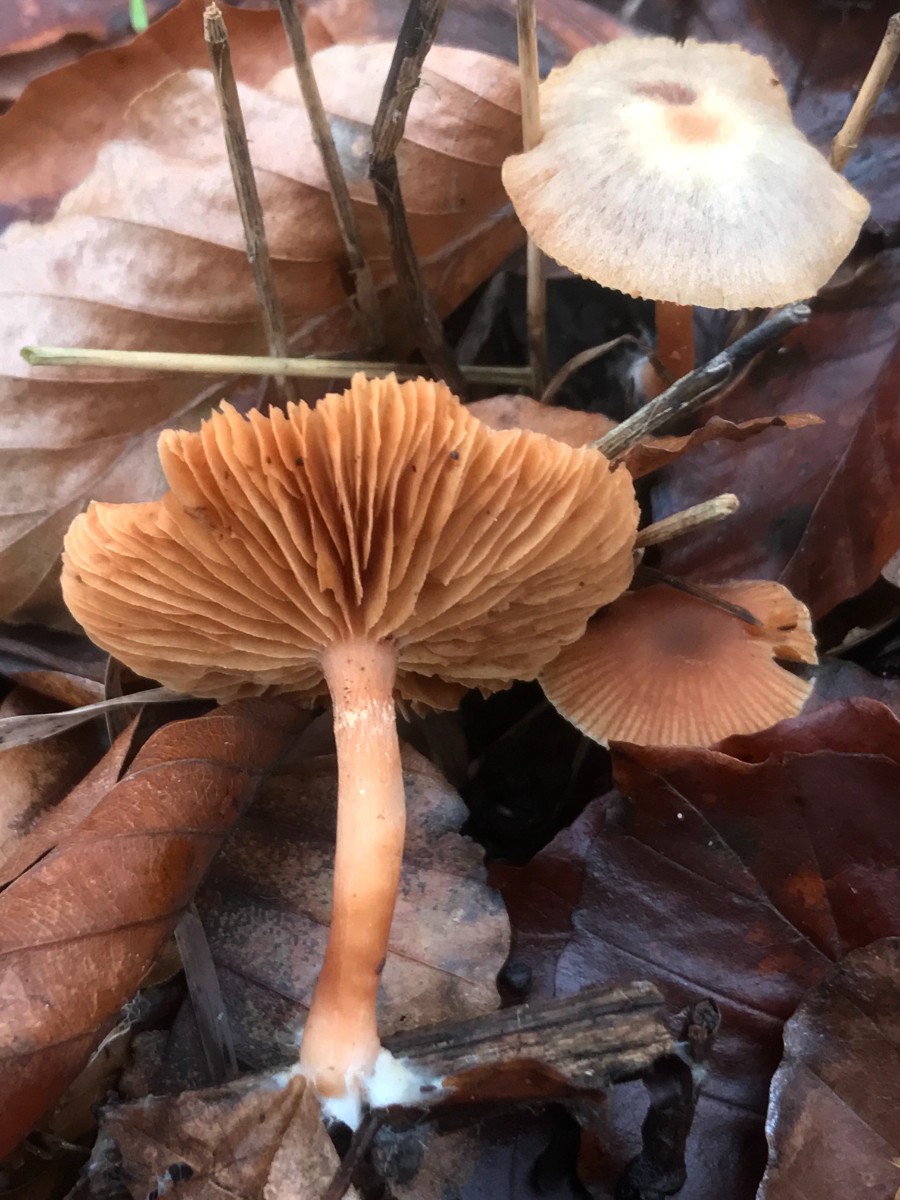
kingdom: Fungi
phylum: Basidiomycota
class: Agaricomycetes
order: Agaricales
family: Tubariaceae
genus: Tubaria
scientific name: Tubaria furfuracea
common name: kliddet fnughat
